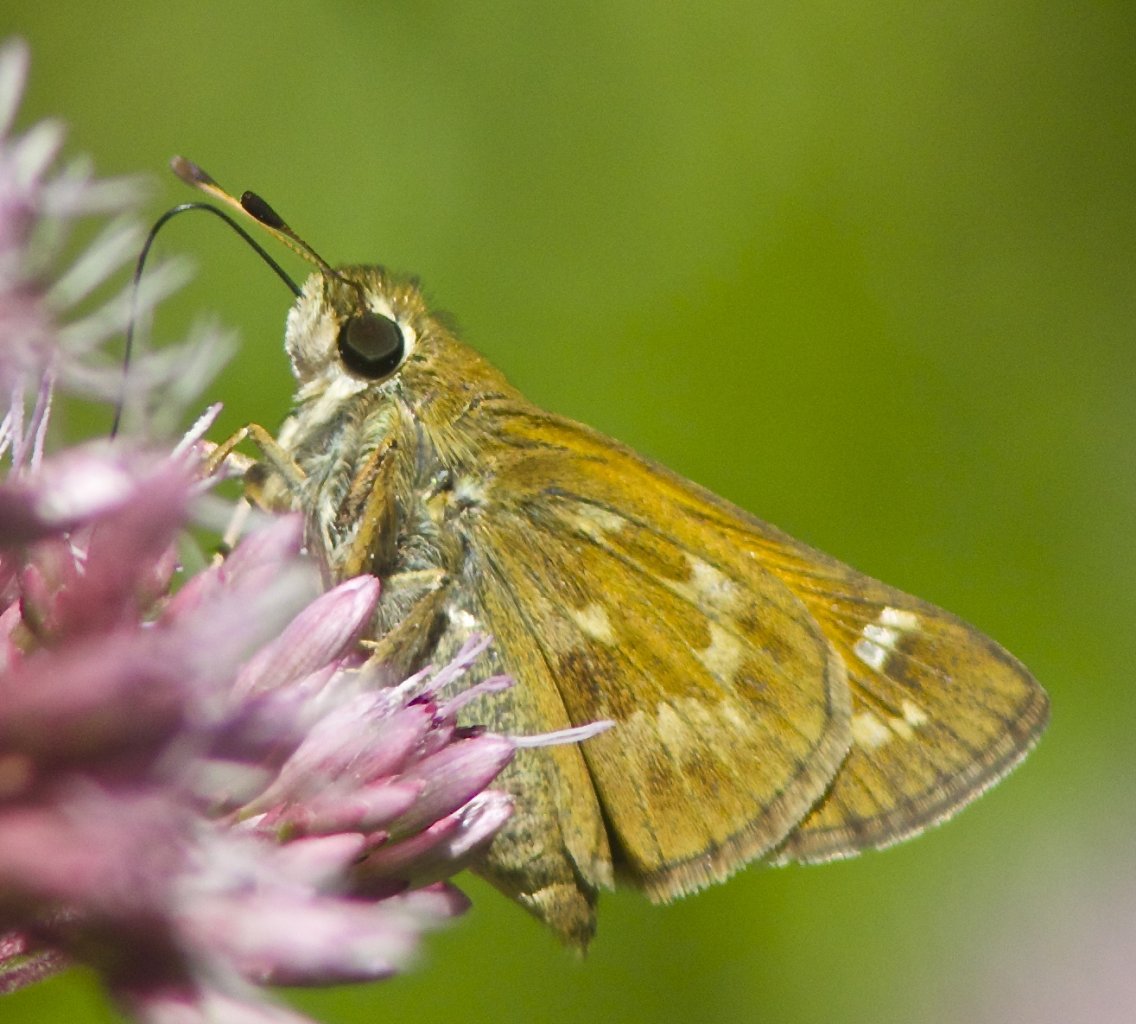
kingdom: Animalia
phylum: Arthropoda
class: Insecta
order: Lepidoptera
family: Hesperiidae
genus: Atalopedes
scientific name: Atalopedes campestris
